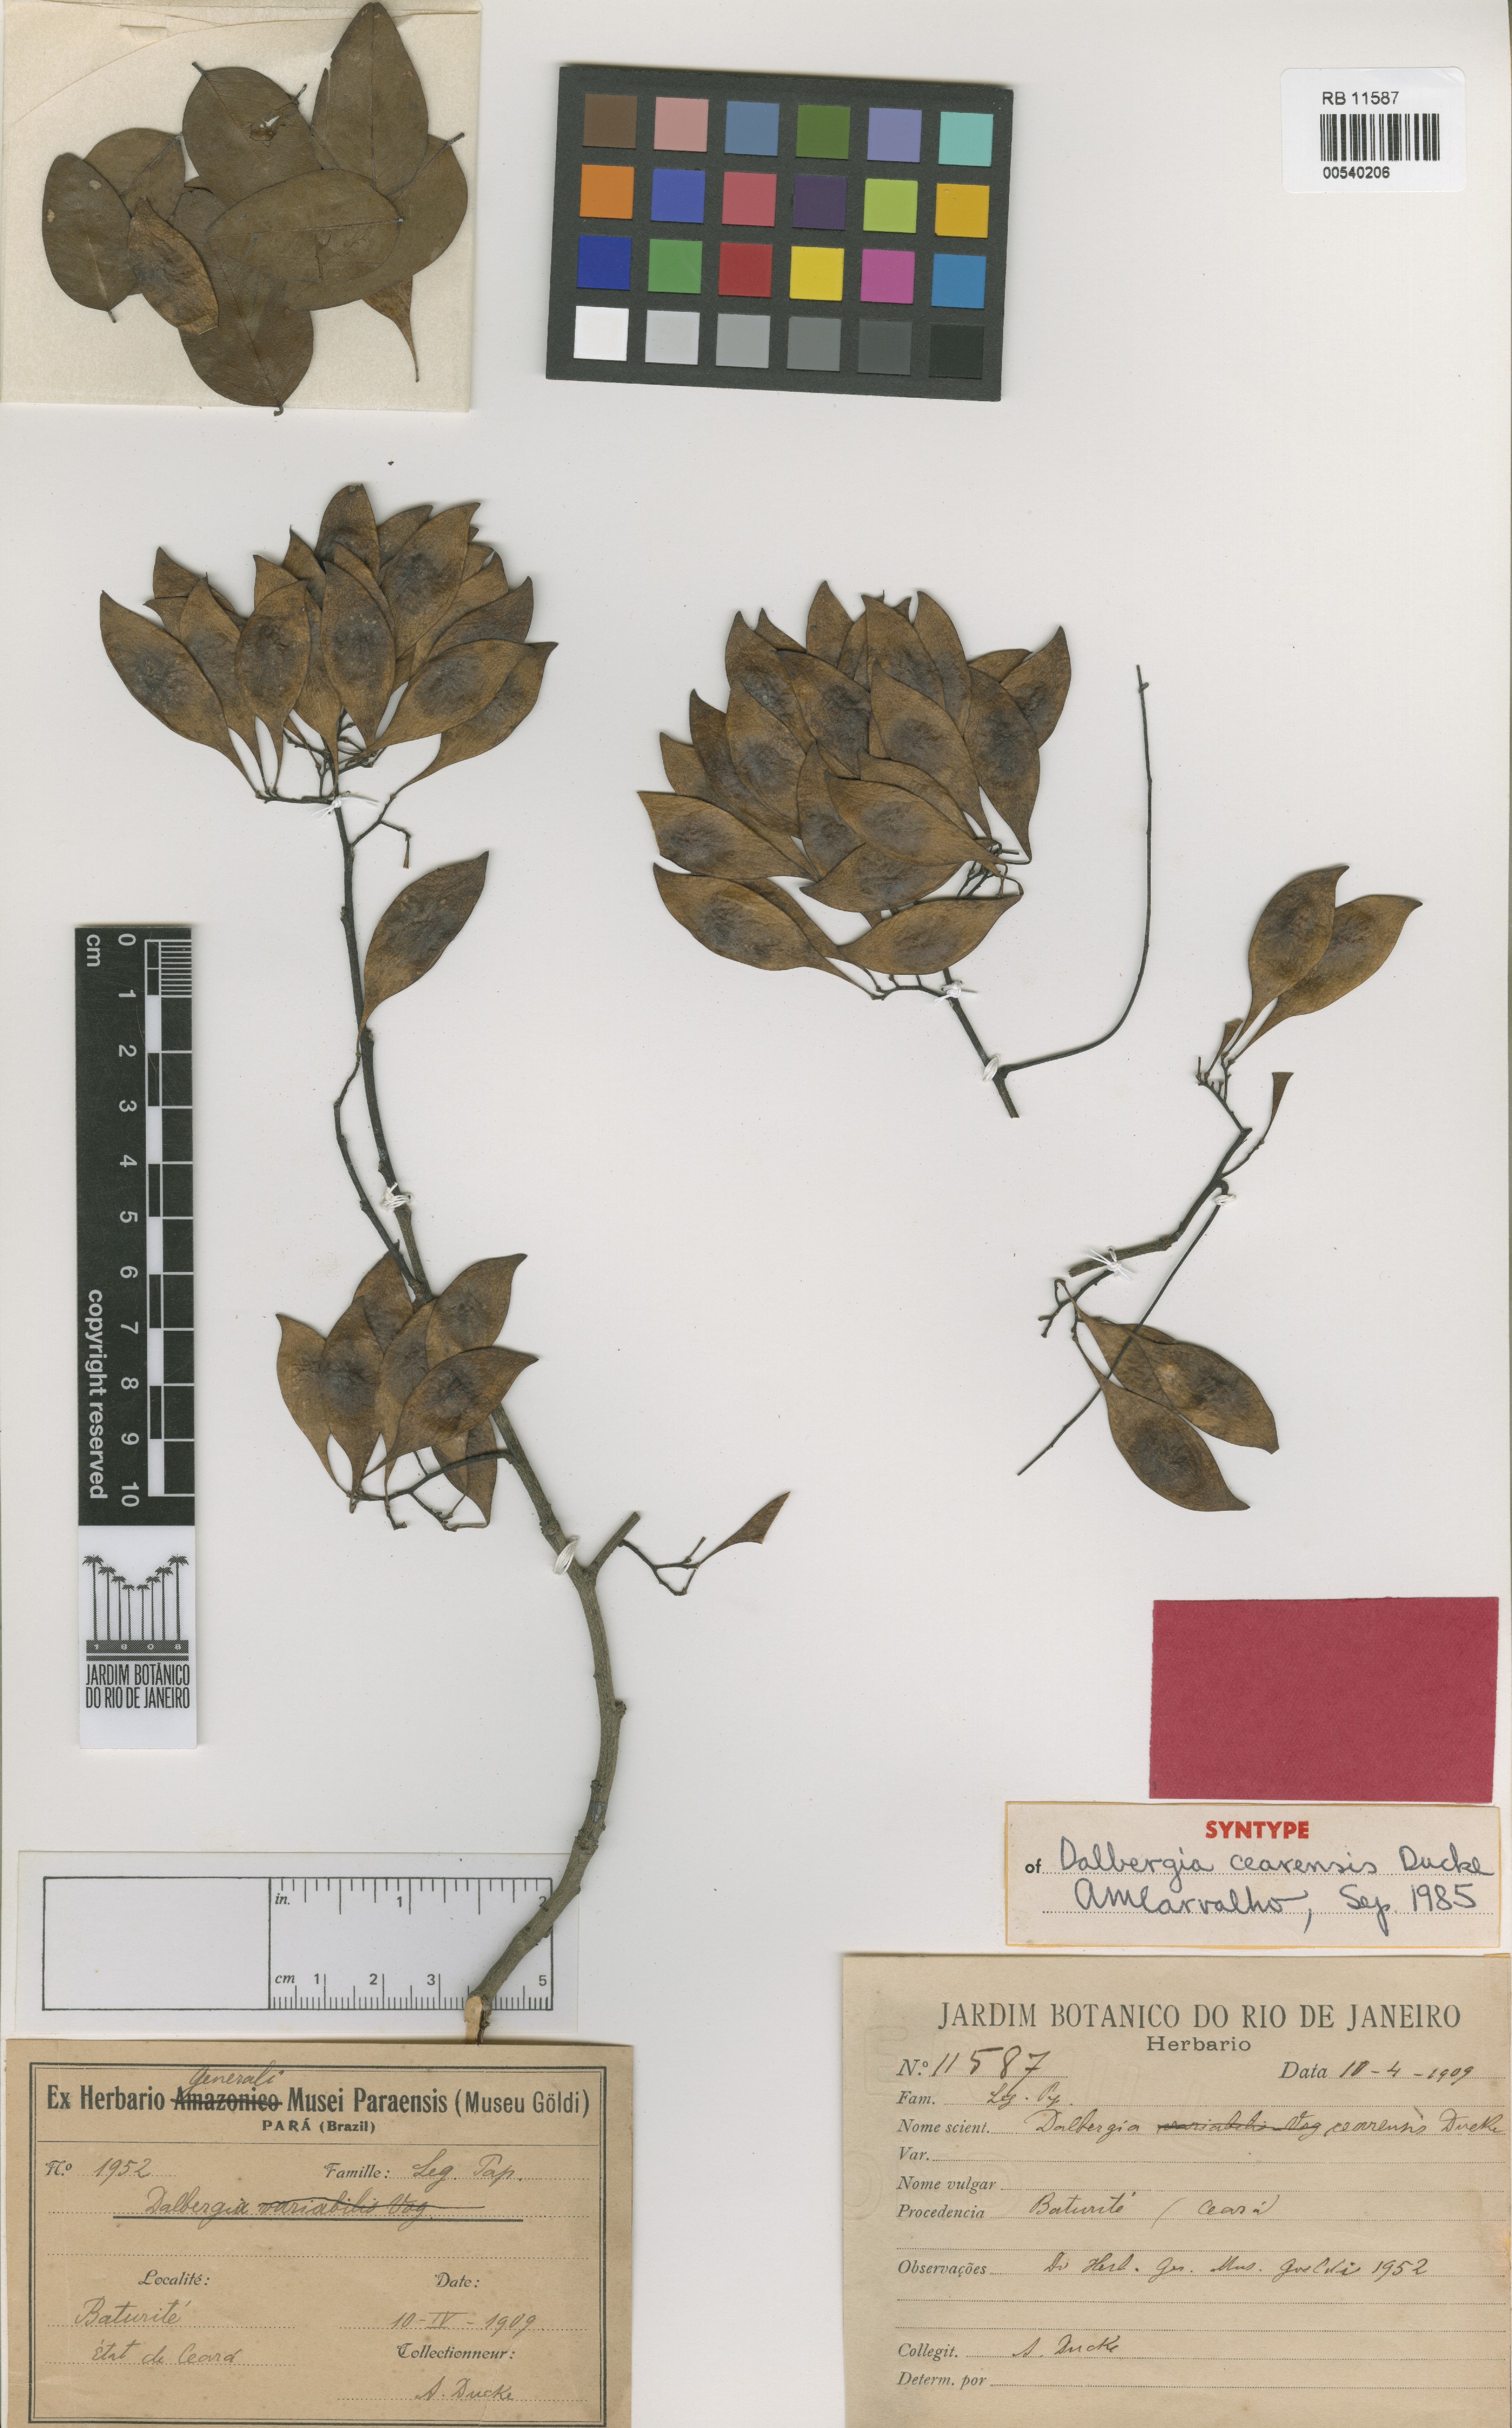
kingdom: Plantae
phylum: Tracheophyta
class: Magnoliopsida
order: Fabales
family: Fabaceae
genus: Dalbergia
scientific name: Dalbergia cearensis
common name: Brazilian-king-wood
